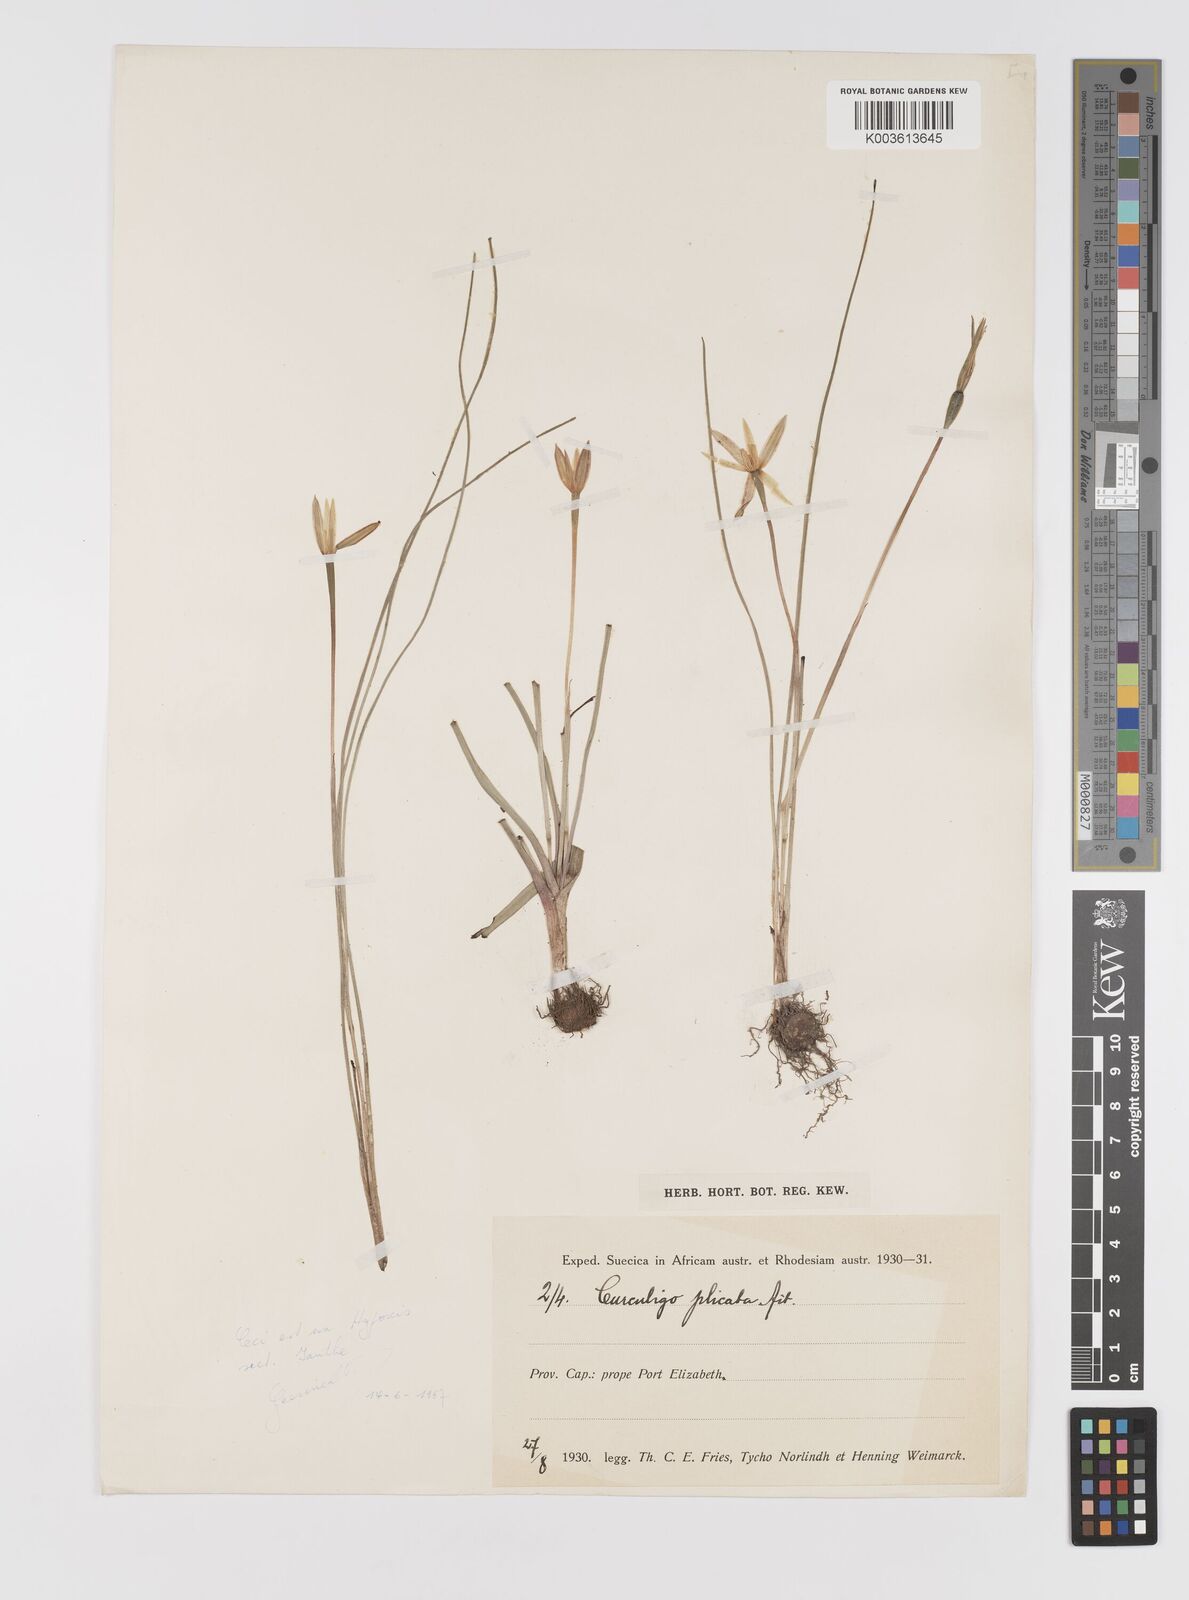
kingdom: Plantae
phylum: Tracheophyta
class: Liliopsida
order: Asparagales
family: Hypoxidaceae
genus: Pauridia
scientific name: Pauridia
